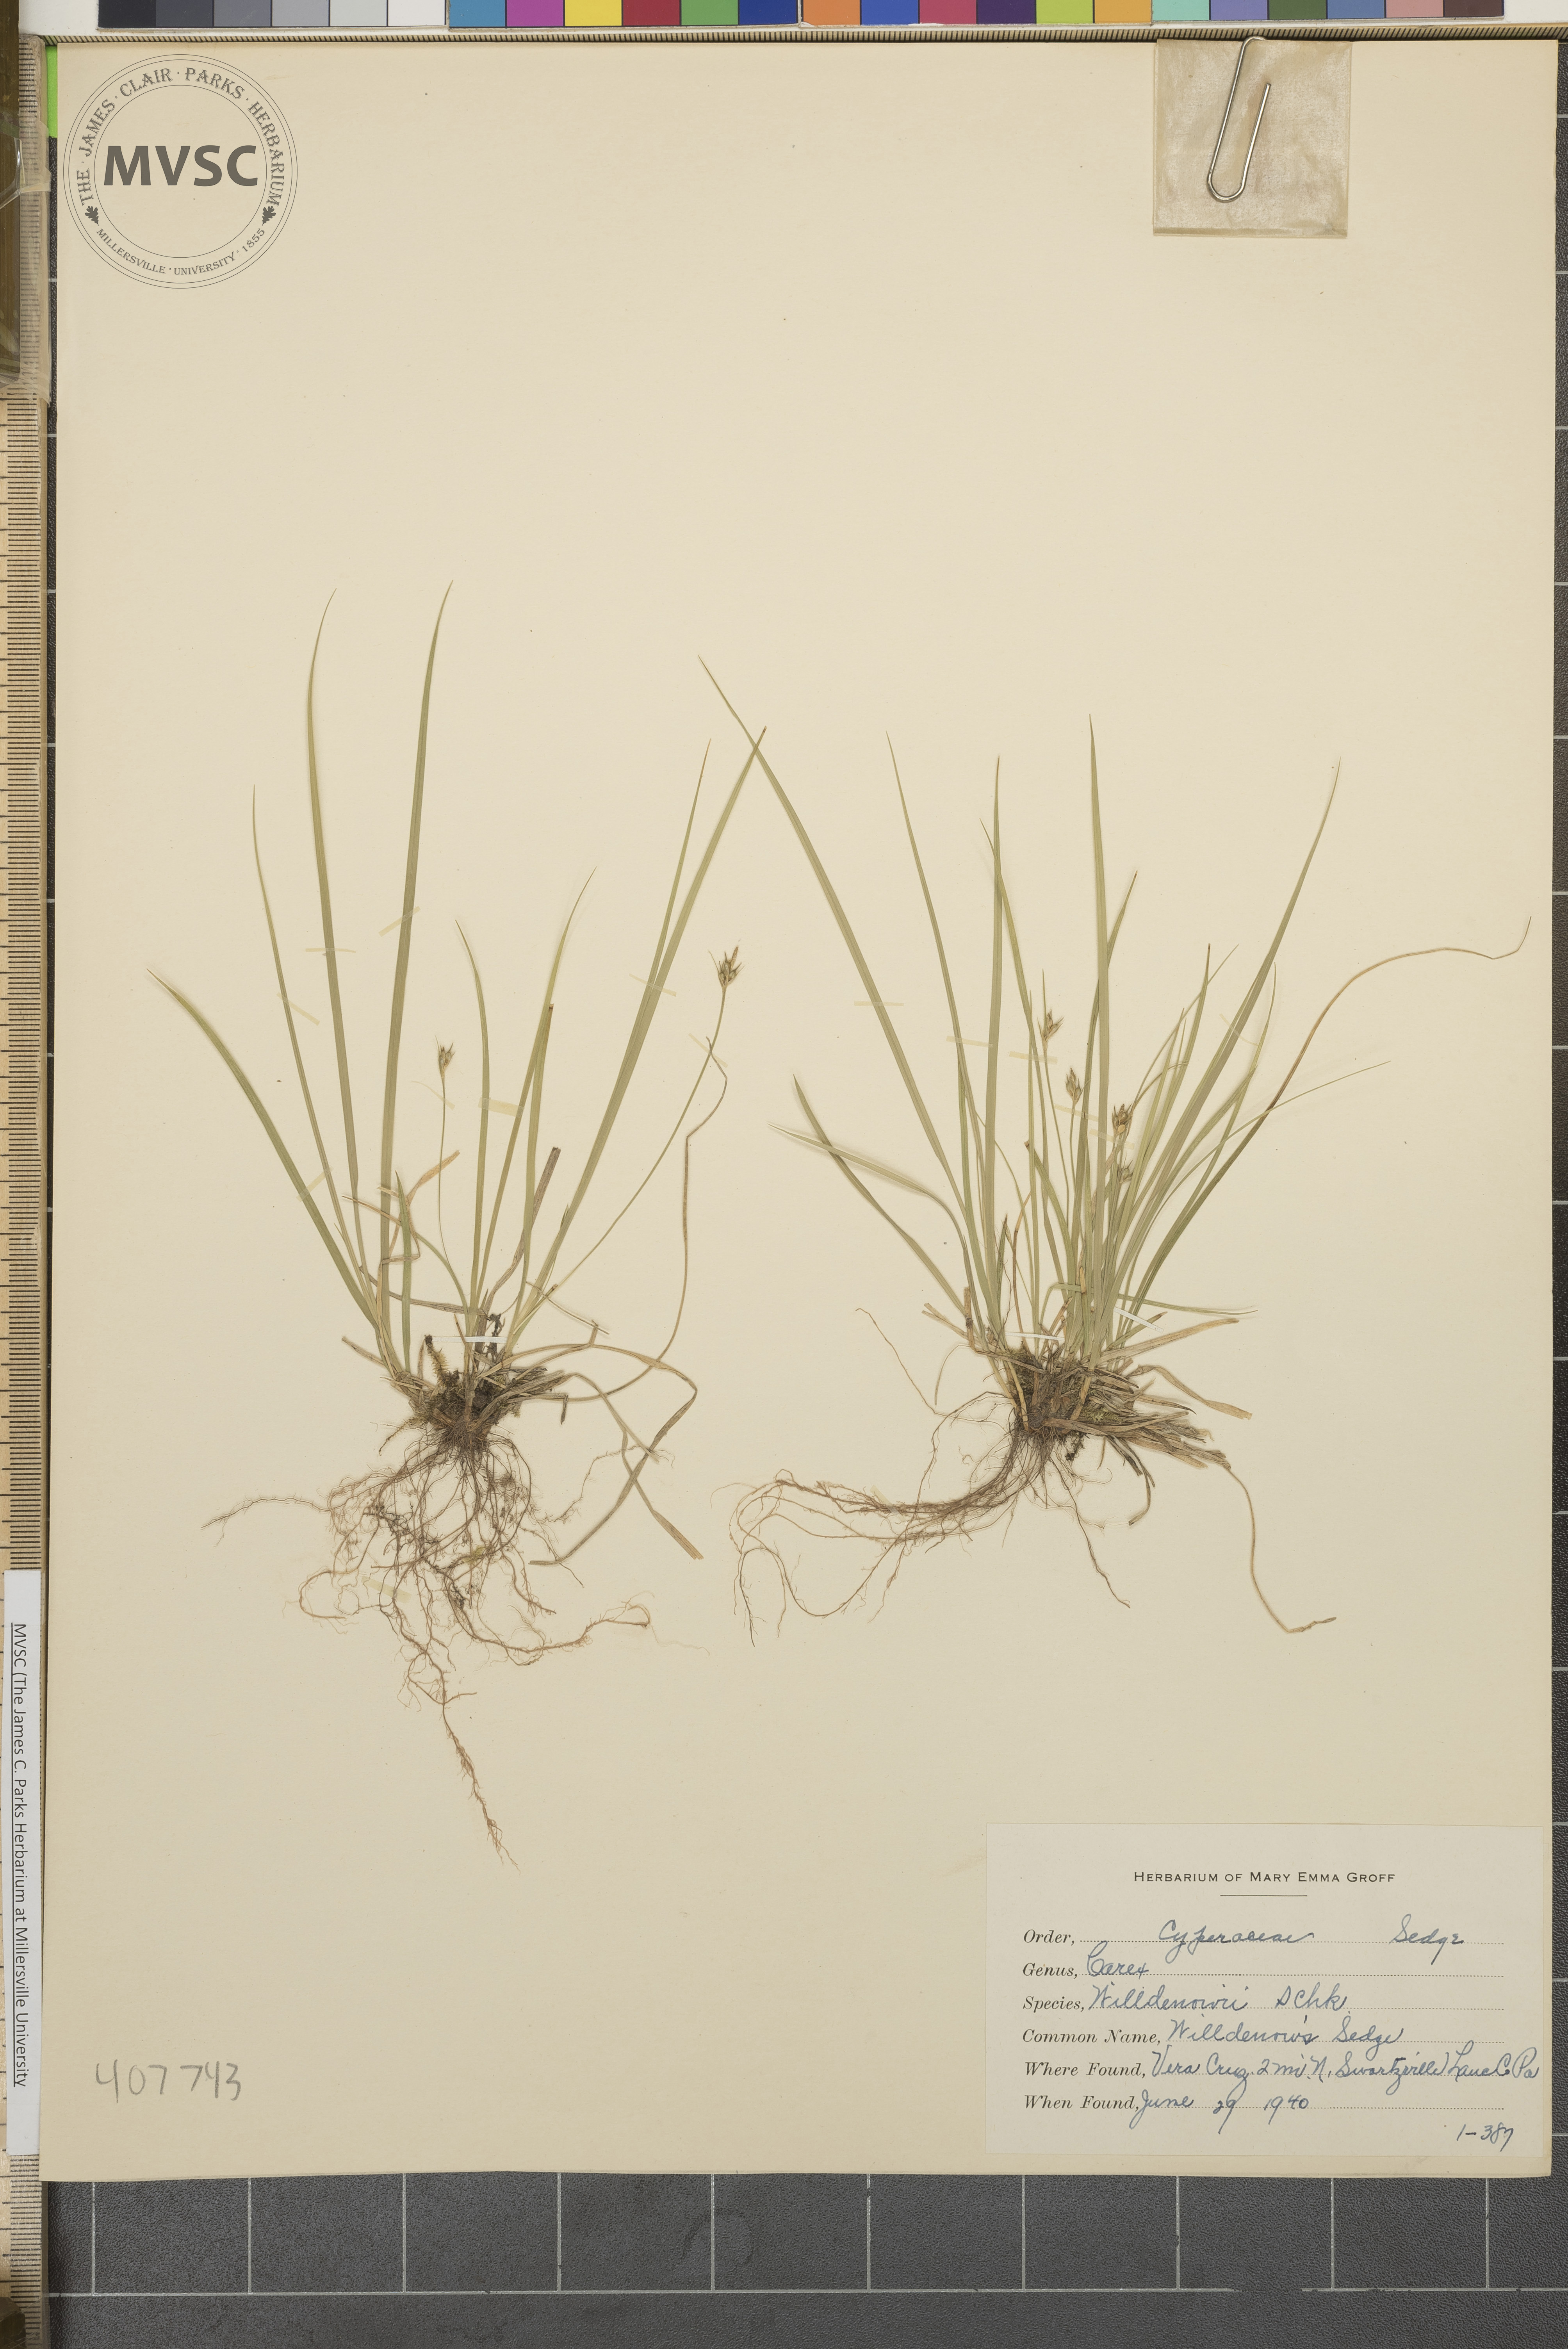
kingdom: Plantae
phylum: Tracheophyta
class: Liliopsida
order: Poales
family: Cyperaceae
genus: Carex
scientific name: Carex willdenowii
